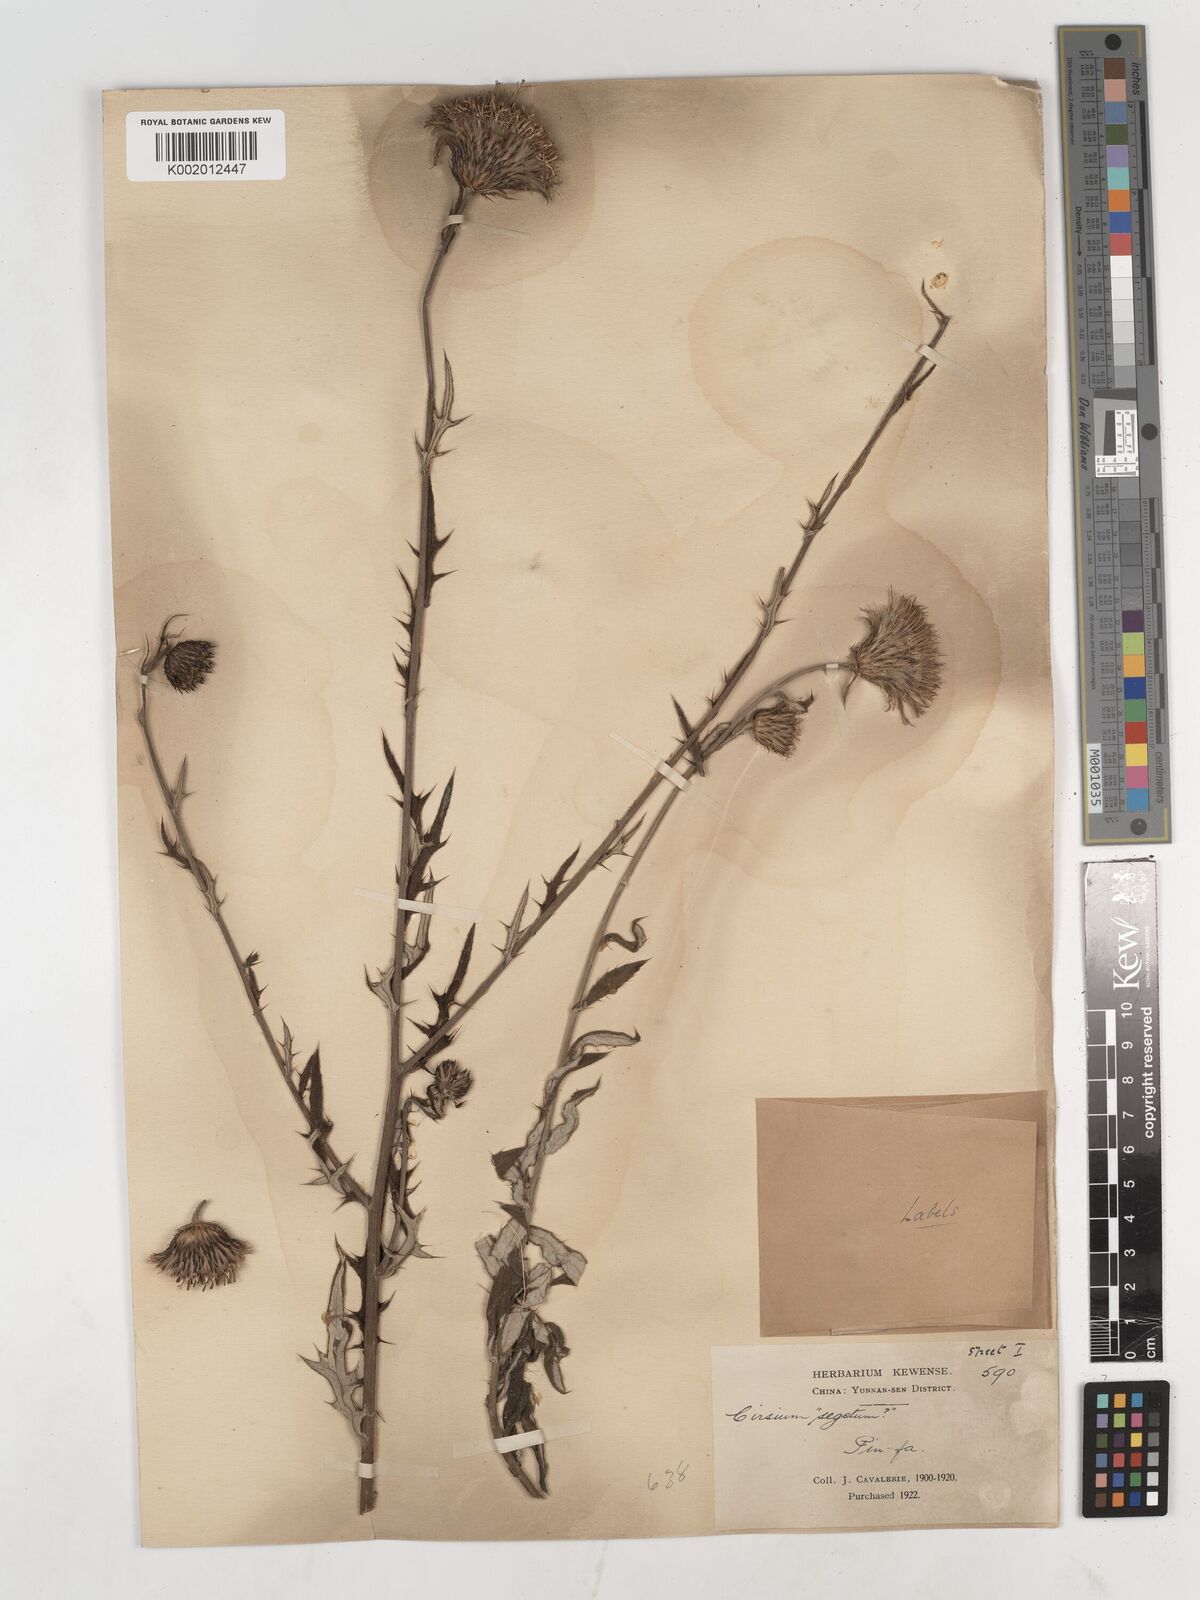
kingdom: Plantae
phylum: Tracheophyta
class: Magnoliopsida
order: Asterales
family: Asteraceae
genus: Lophiolepis
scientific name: Lophiolepis veruta
